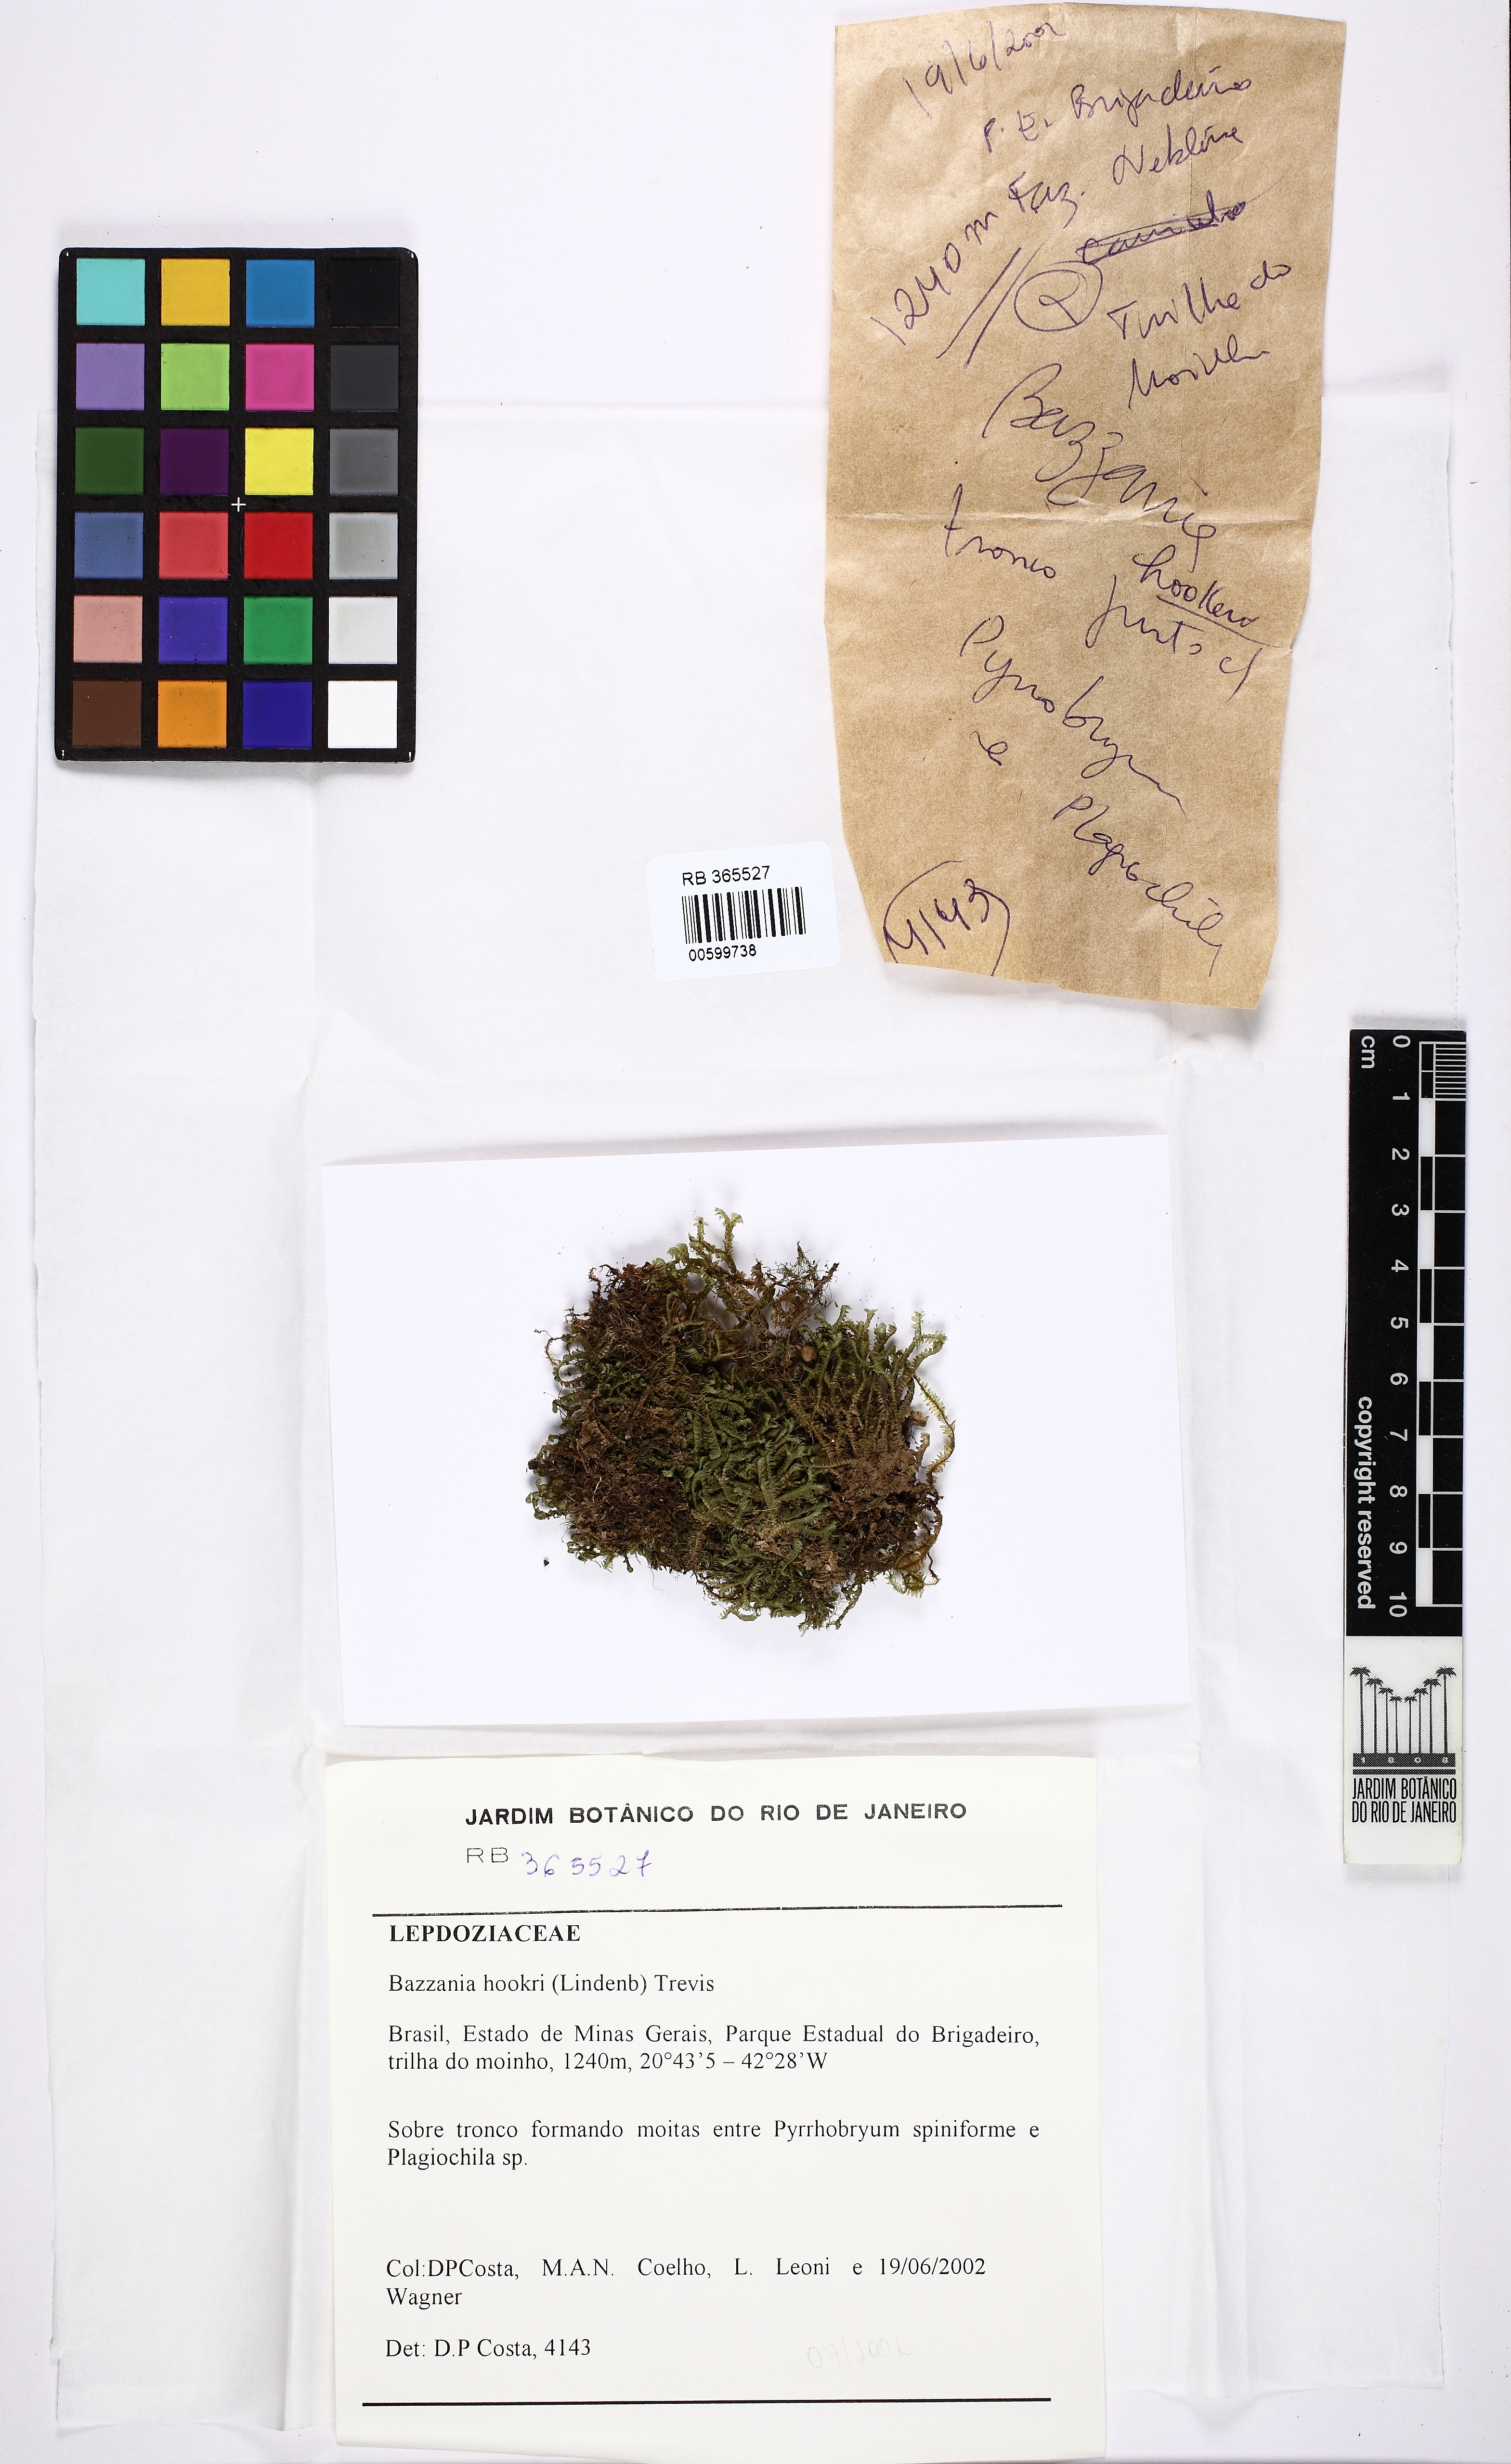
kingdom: Plantae
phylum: Marchantiophyta
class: Jungermanniopsida
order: Jungermanniales
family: Lepidoziaceae
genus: Bazzania
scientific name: Bazzania hookeri
